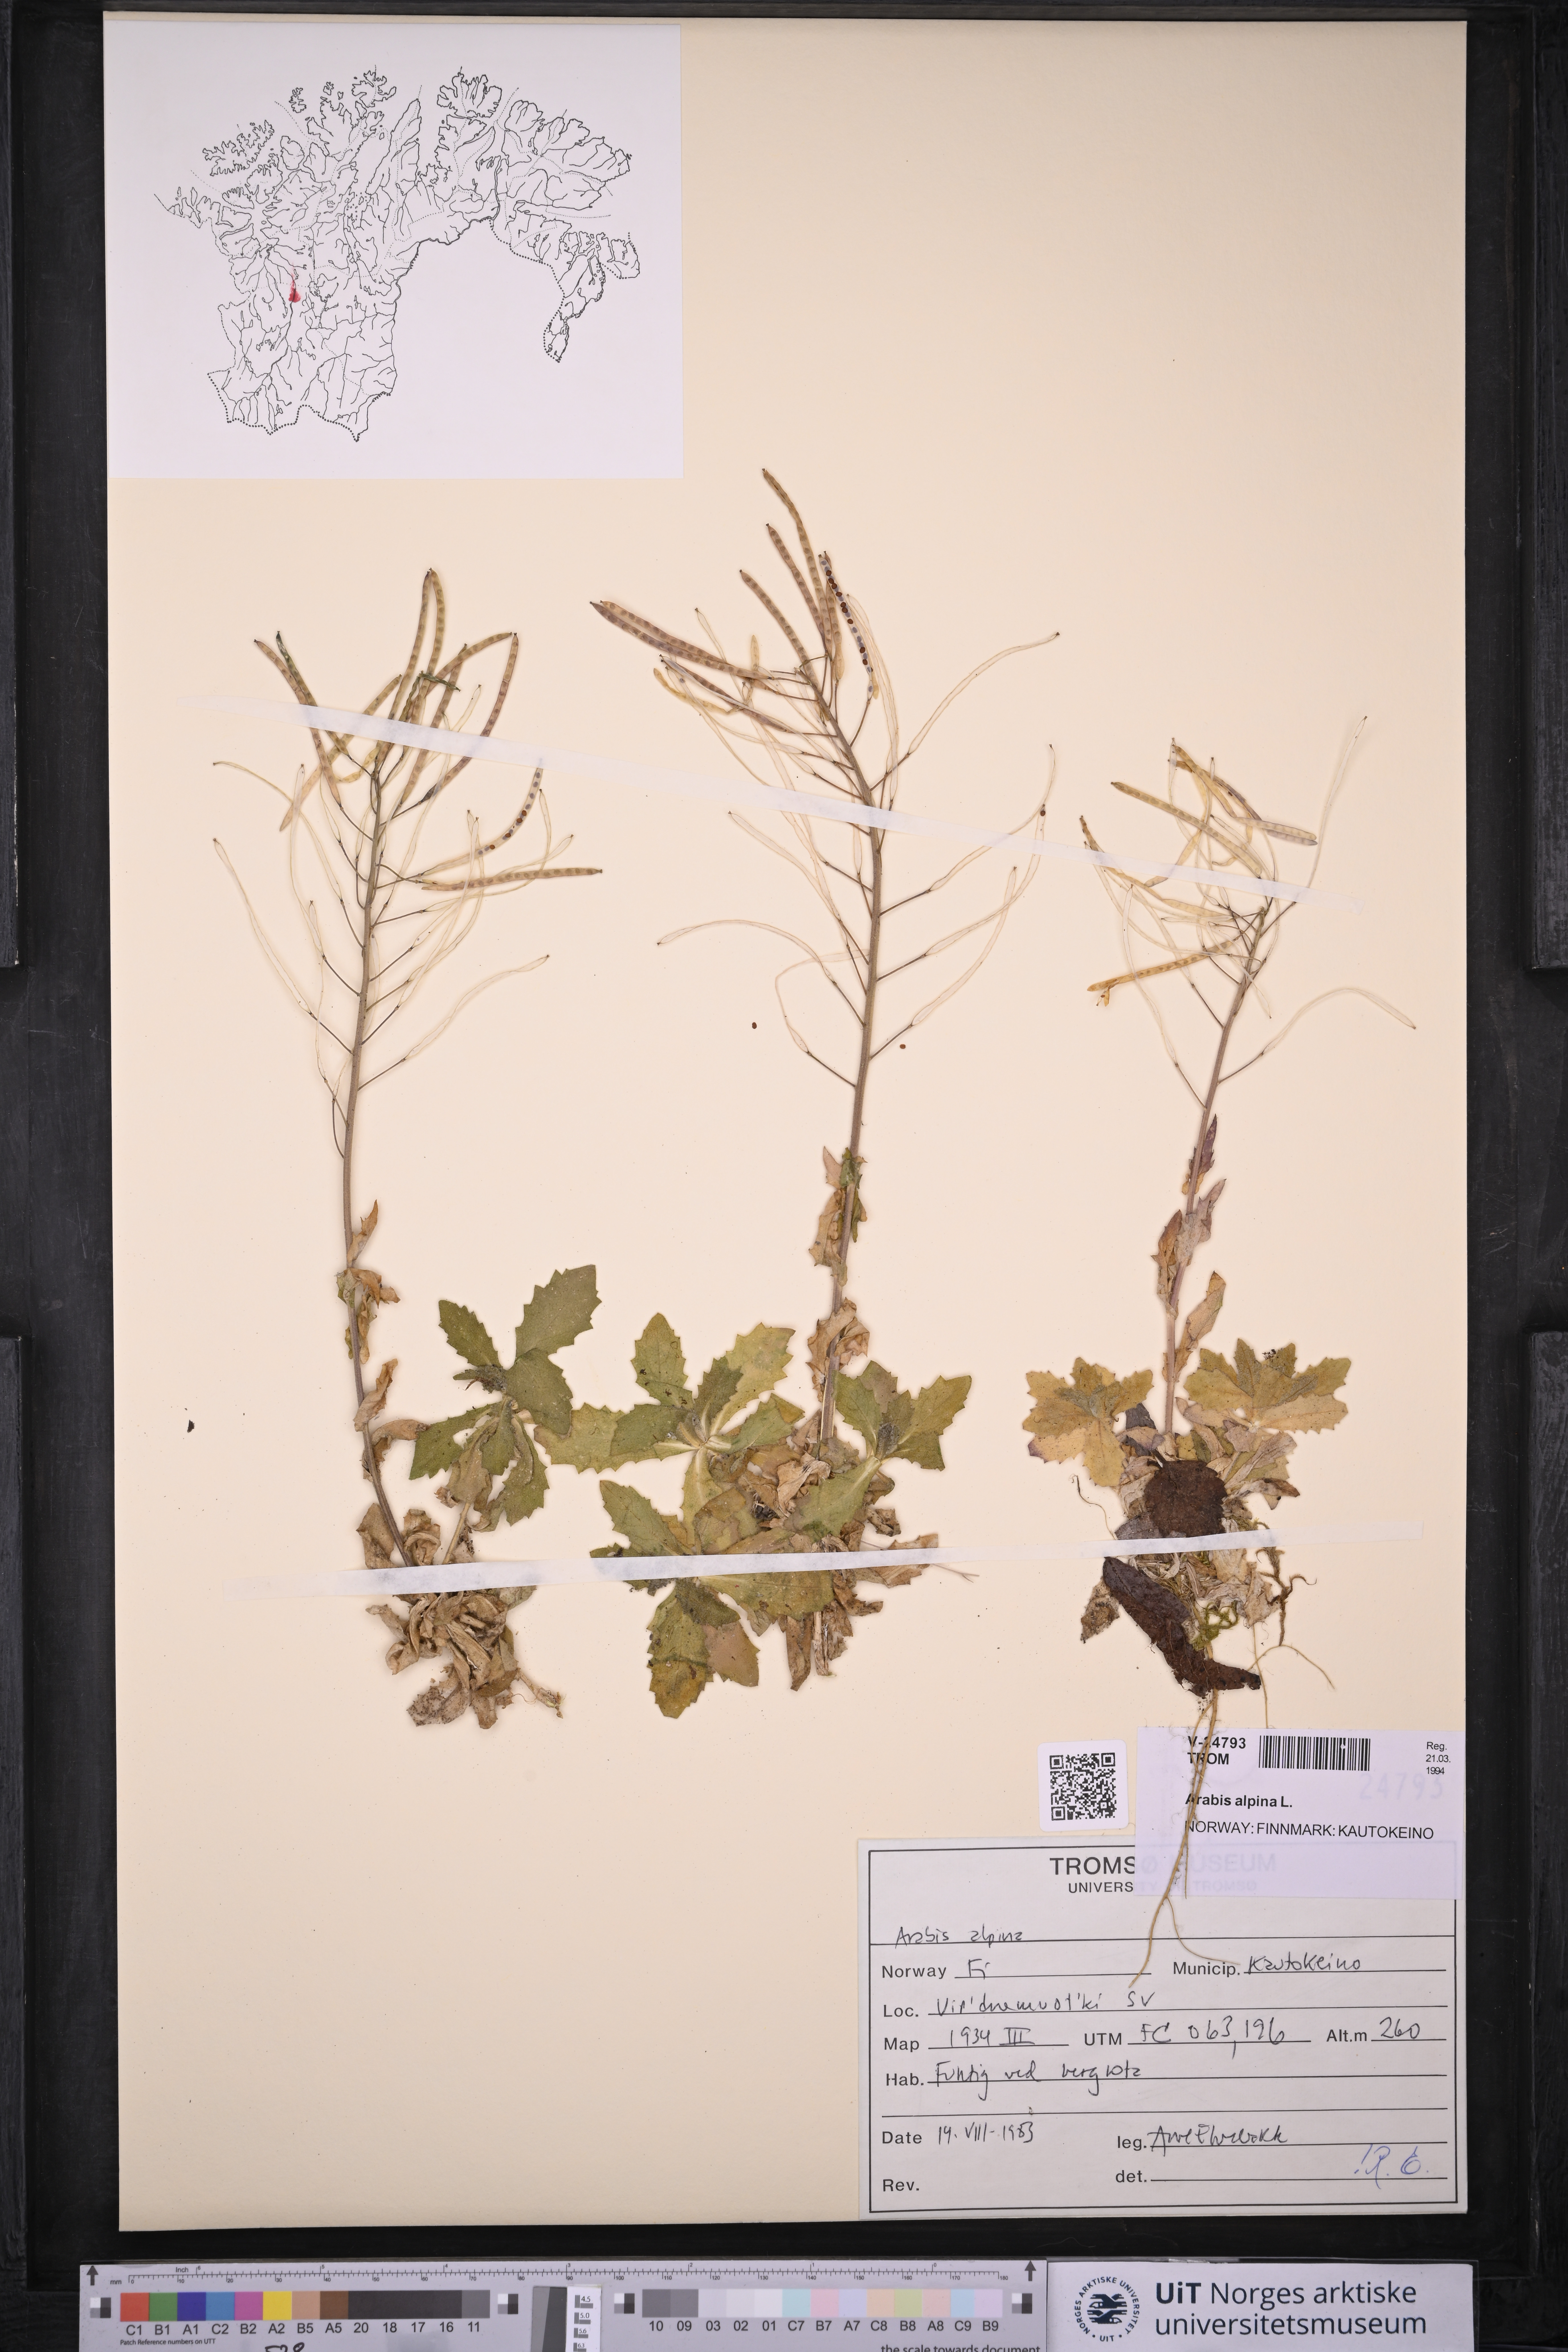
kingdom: Plantae
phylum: Tracheophyta
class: Magnoliopsida
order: Brassicales
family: Brassicaceae
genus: Arabis
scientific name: Arabis alpina
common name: Alpine rock-cress
